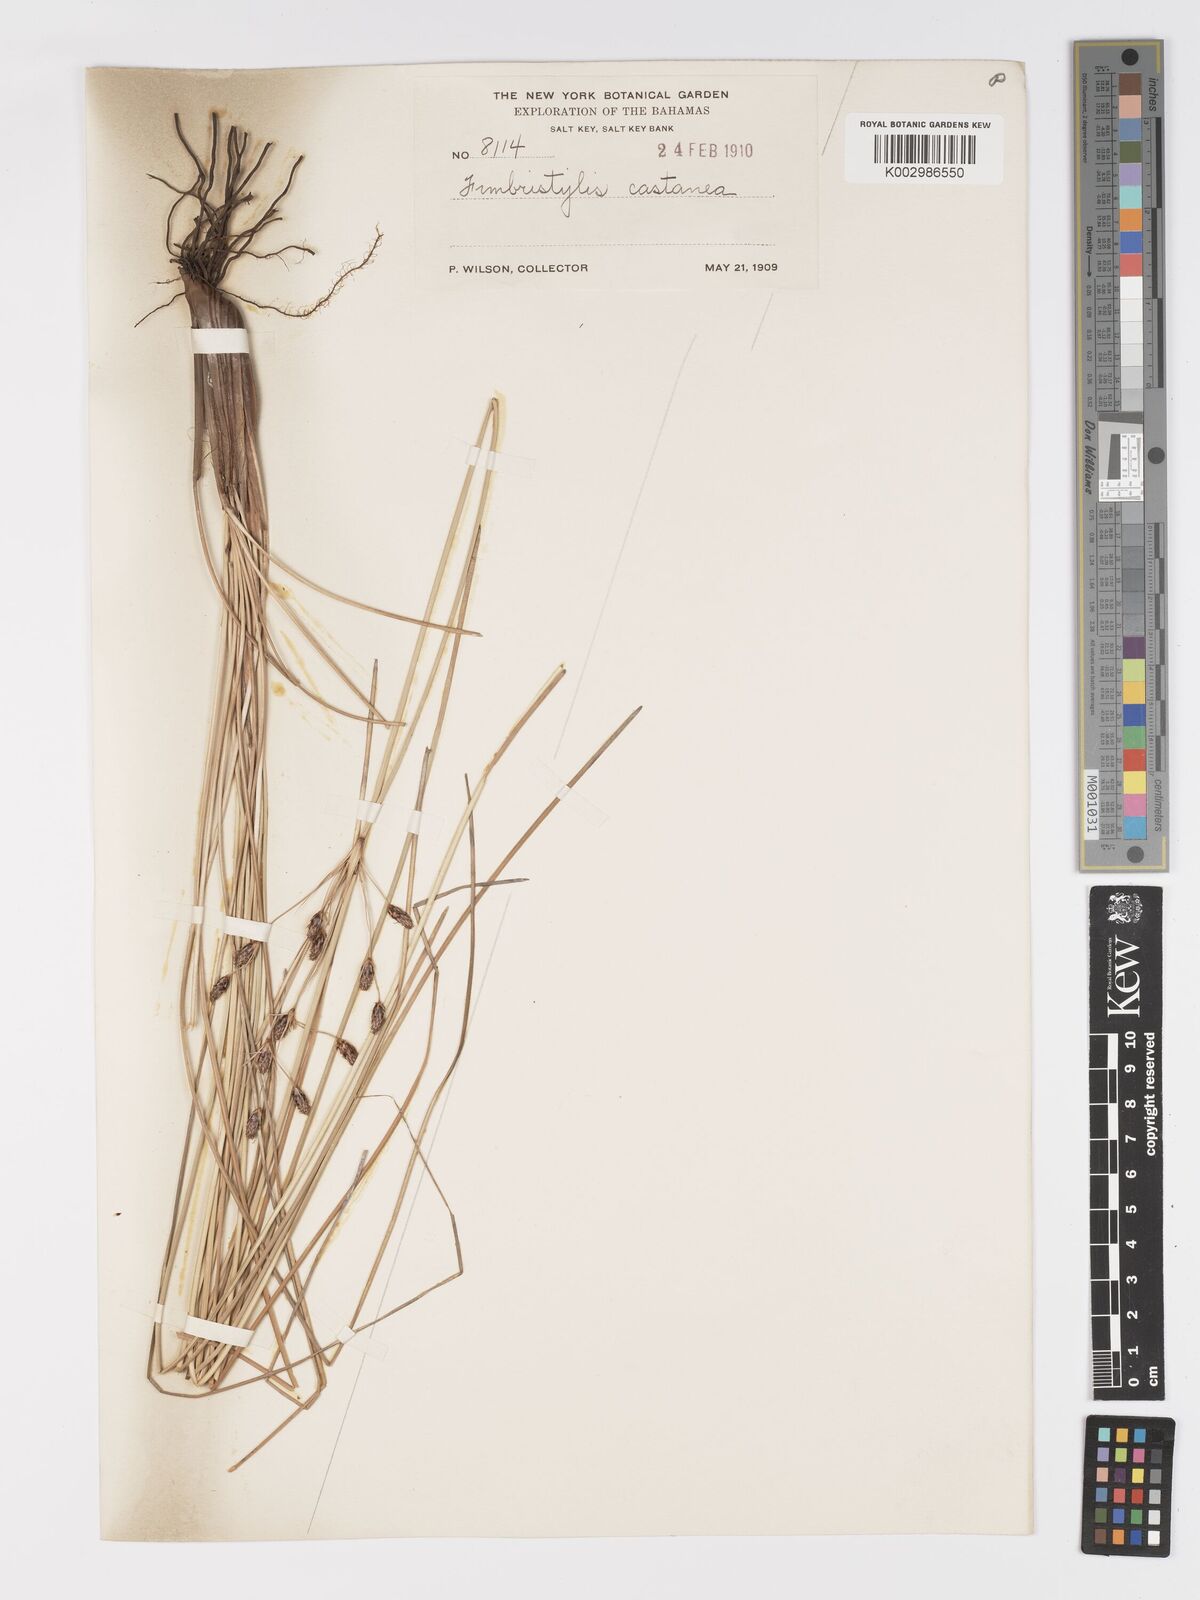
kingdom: Plantae
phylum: Tracheophyta
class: Liliopsida
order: Poales
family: Cyperaceae
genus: Fimbristylis
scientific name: Fimbristylis spadicea
